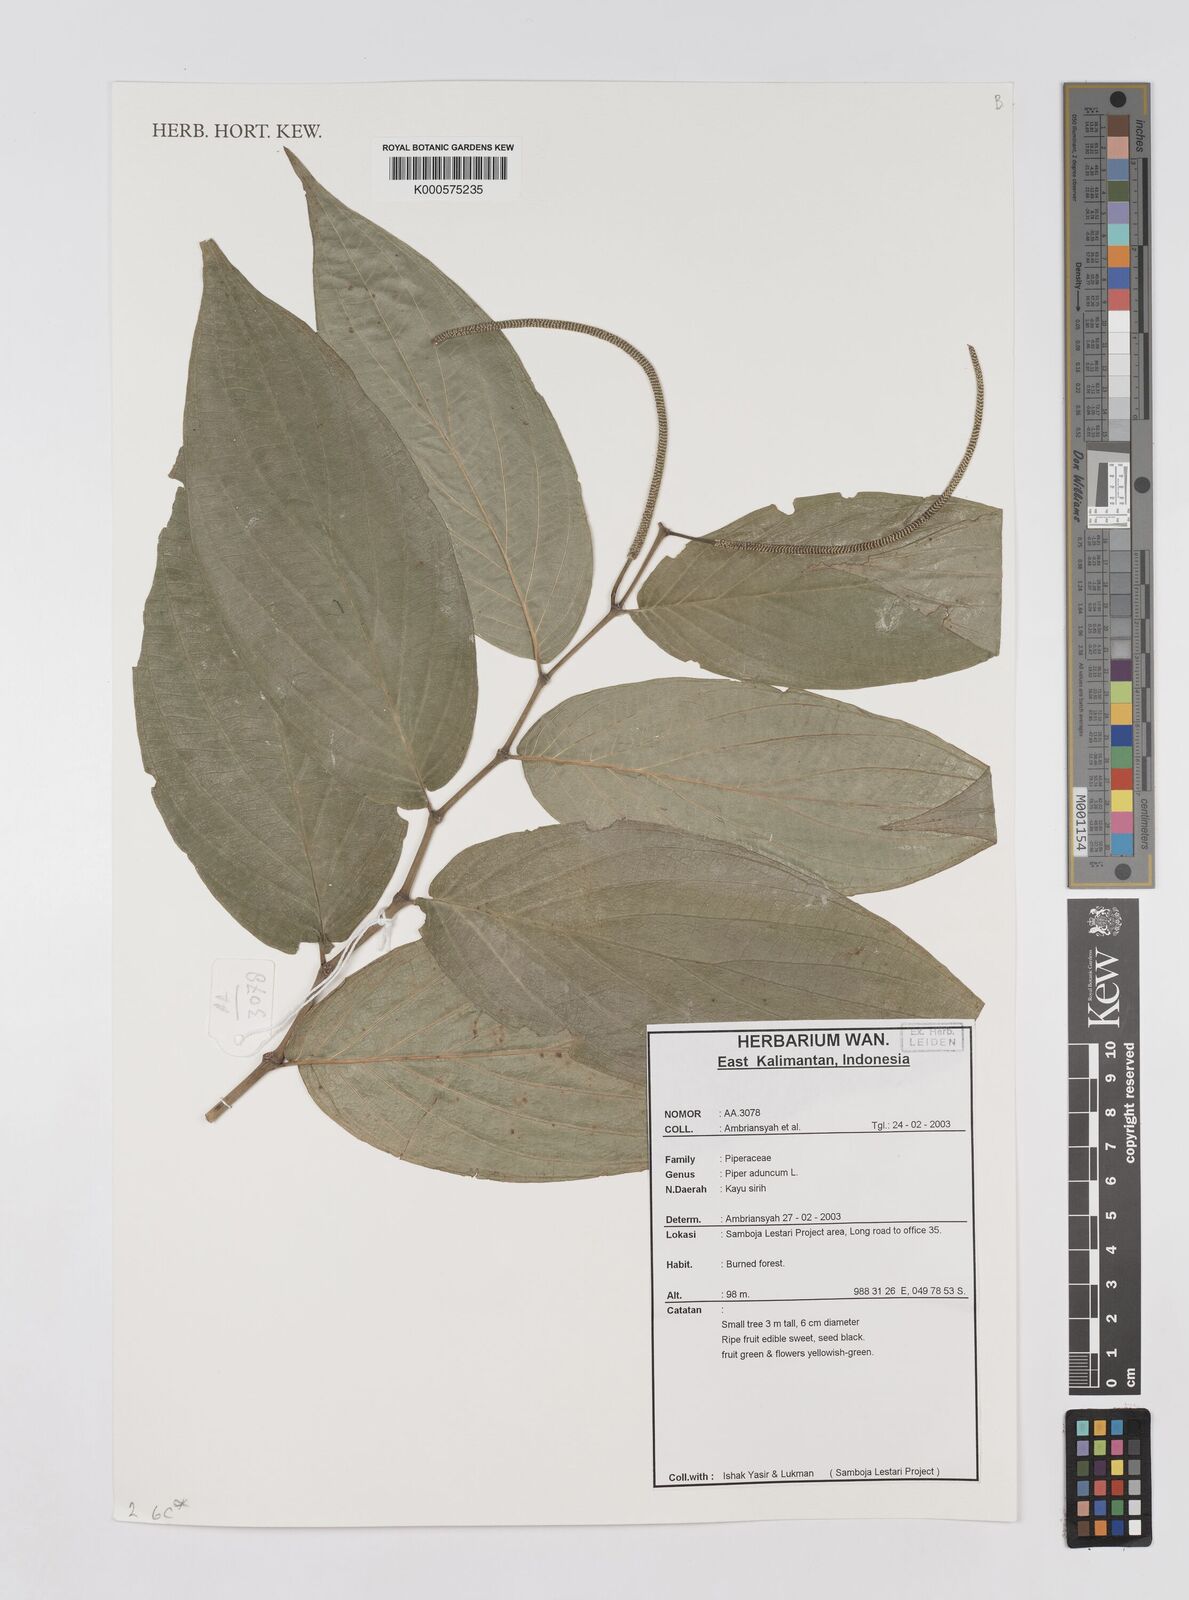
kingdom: Plantae
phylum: Tracheophyta
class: Magnoliopsida
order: Piperales
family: Piperaceae
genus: Piper
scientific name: Piper aduncum
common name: Spiked pepper
